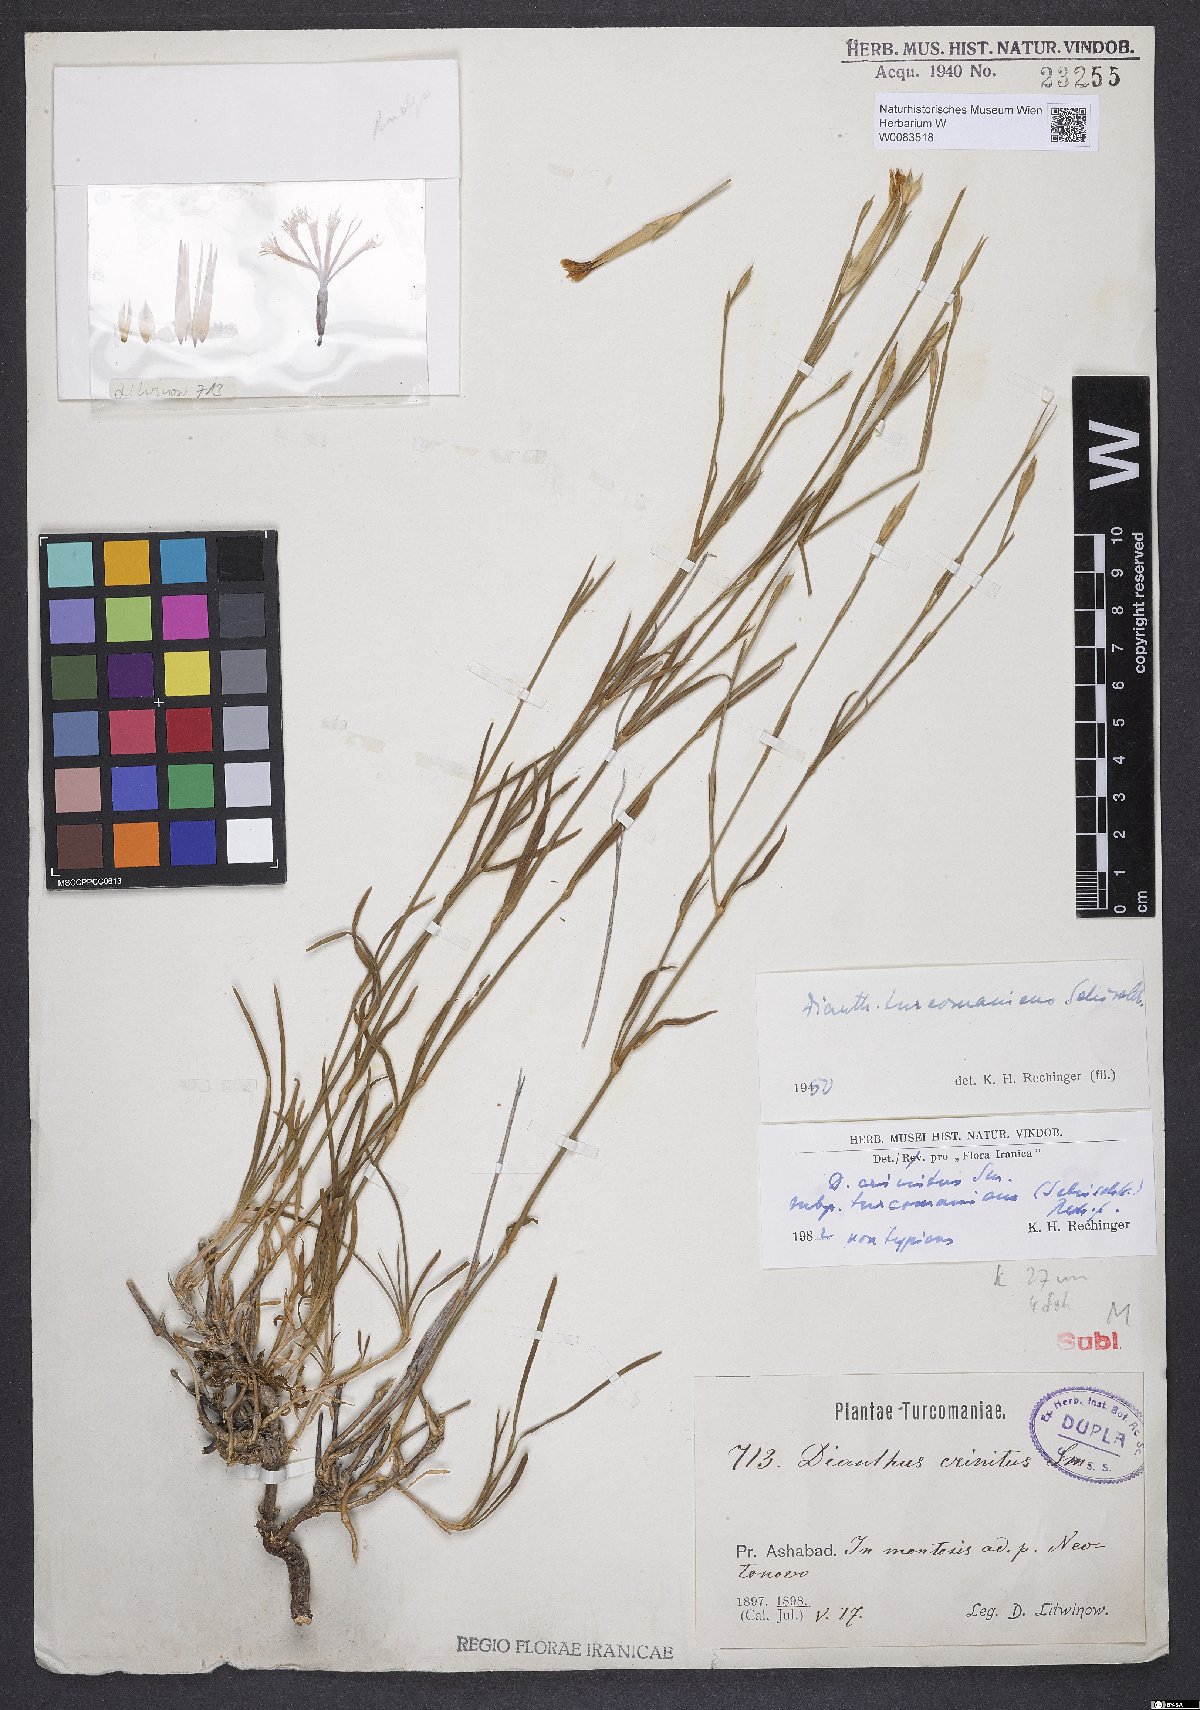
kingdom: Plantae
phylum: Tracheophyta
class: Magnoliopsida
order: Caryophyllales
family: Caryophyllaceae
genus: Dianthus
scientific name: Dianthus turkestanicus
